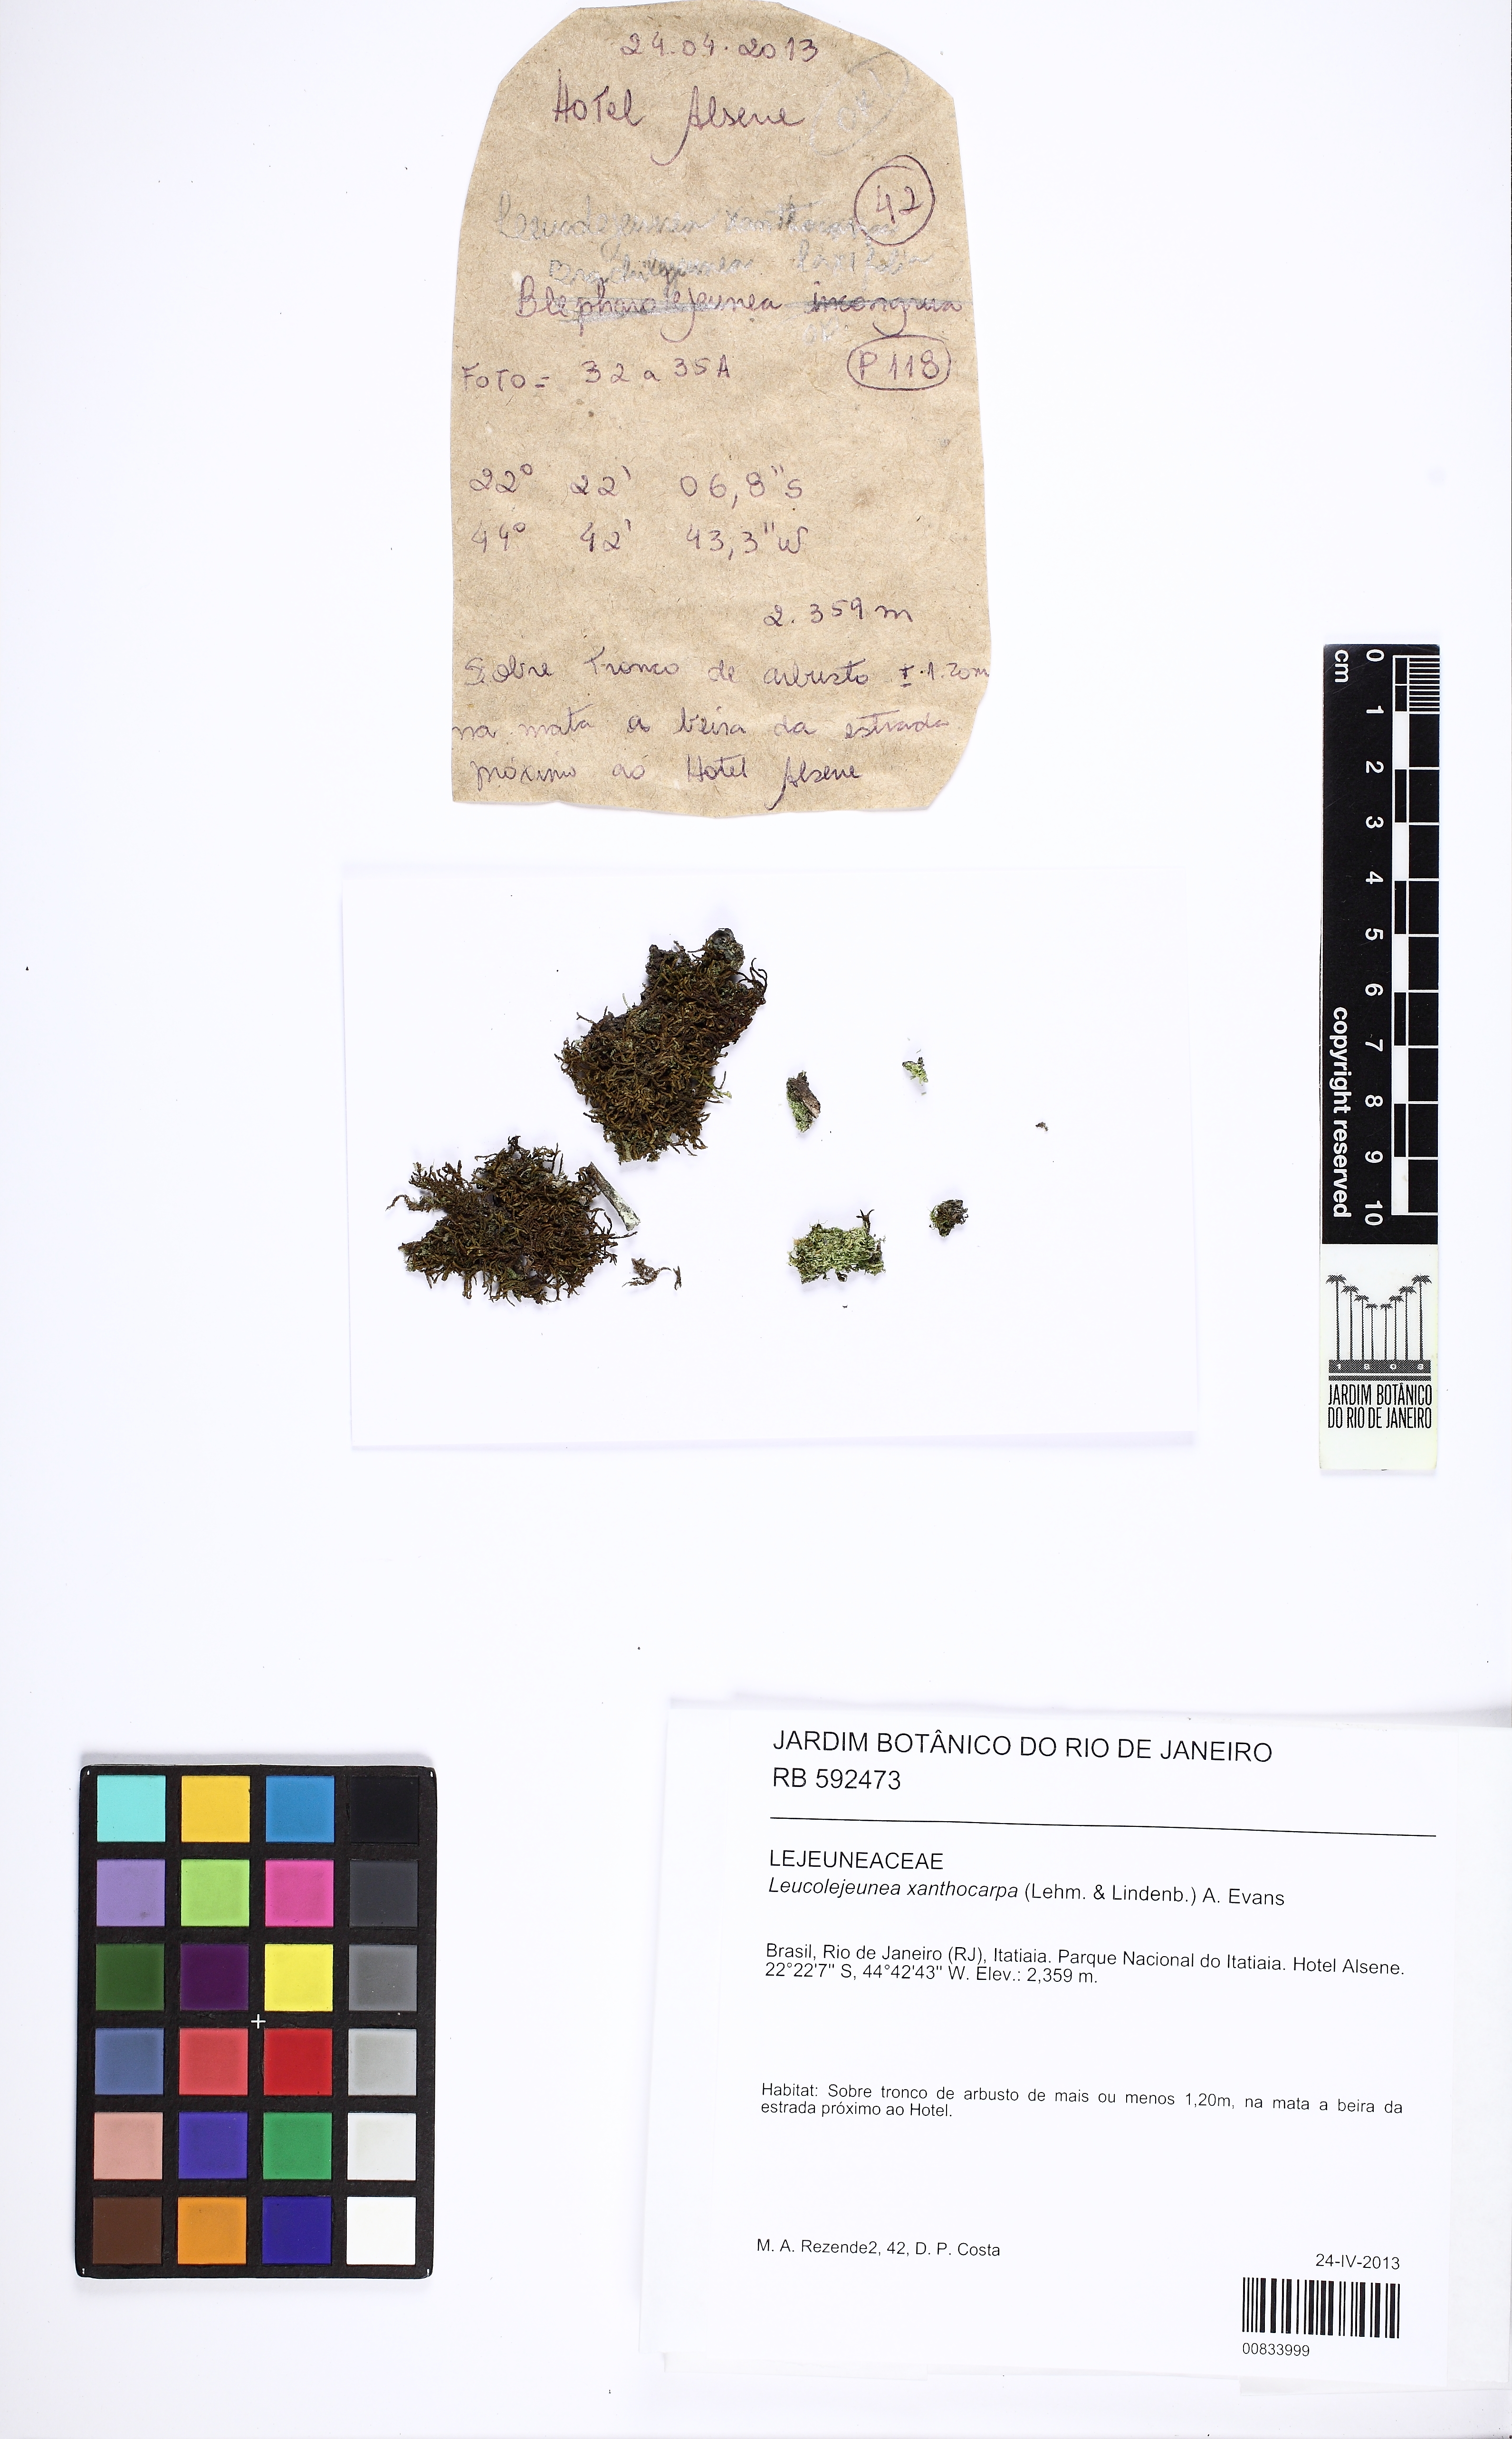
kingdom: Plantae
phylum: Marchantiophyta
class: Jungermanniopsida
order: Porellales
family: Lejeuneaceae
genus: Cheilolejeunea
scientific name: Cheilolejeunea xanthocarpa
